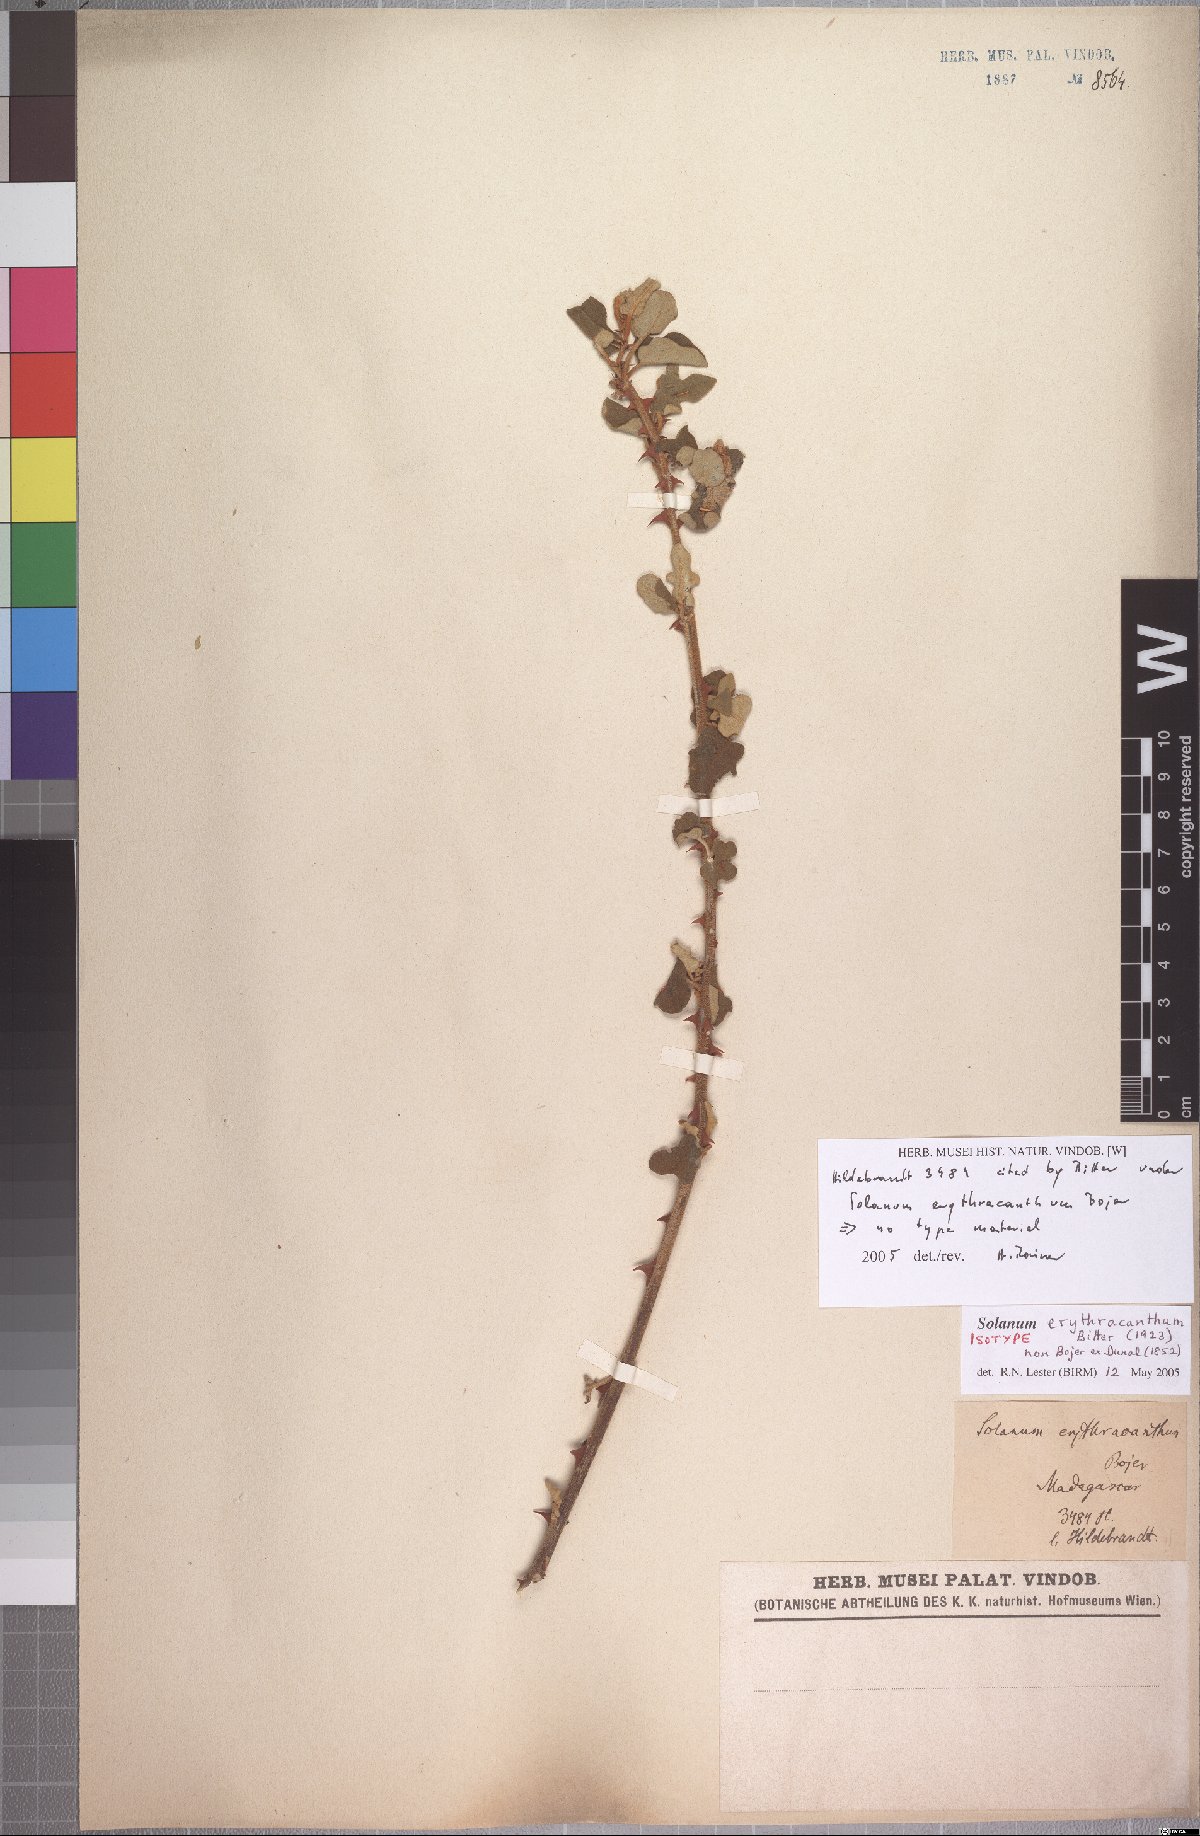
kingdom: Plantae
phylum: Tracheophyta
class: Magnoliopsida
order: Solanales
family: Solanaceae
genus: Solanum
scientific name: Solanum erythracanthum
